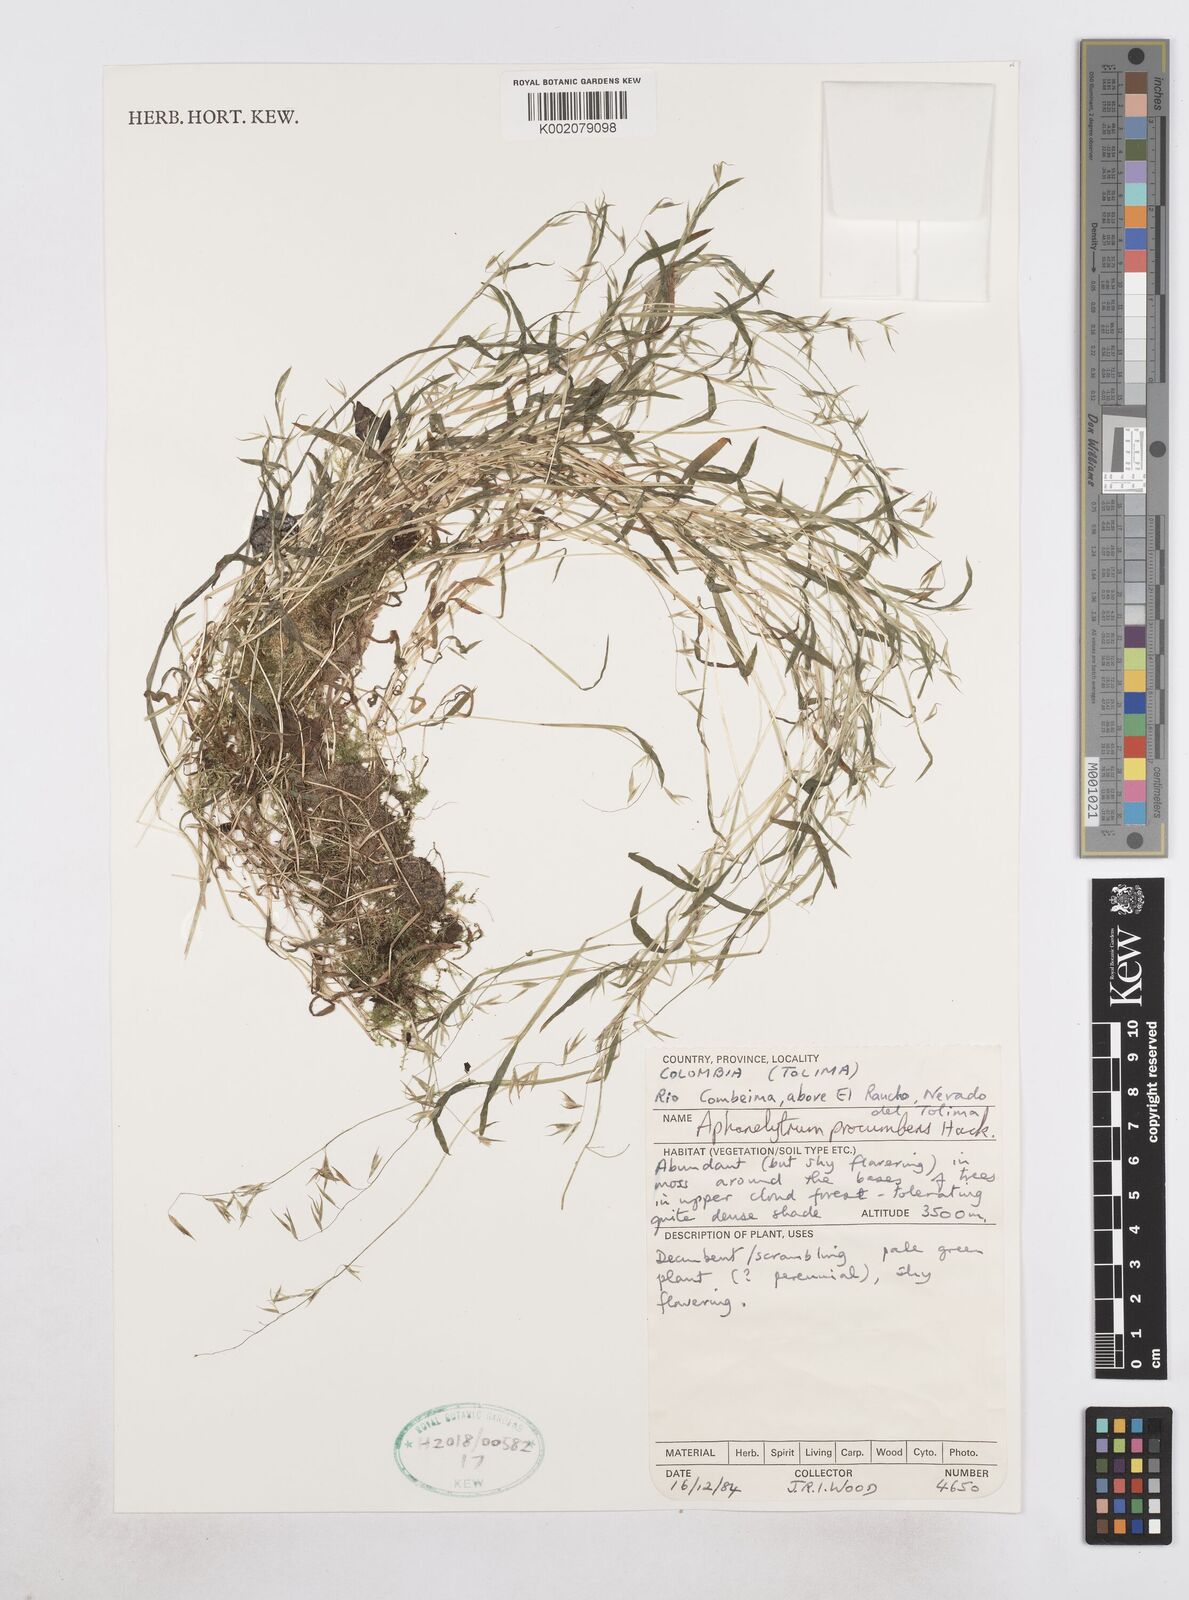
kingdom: Plantae
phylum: Tracheophyta
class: Liliopsida
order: Poales
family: Poaceae
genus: Poa
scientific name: Poa hitchcockiana
